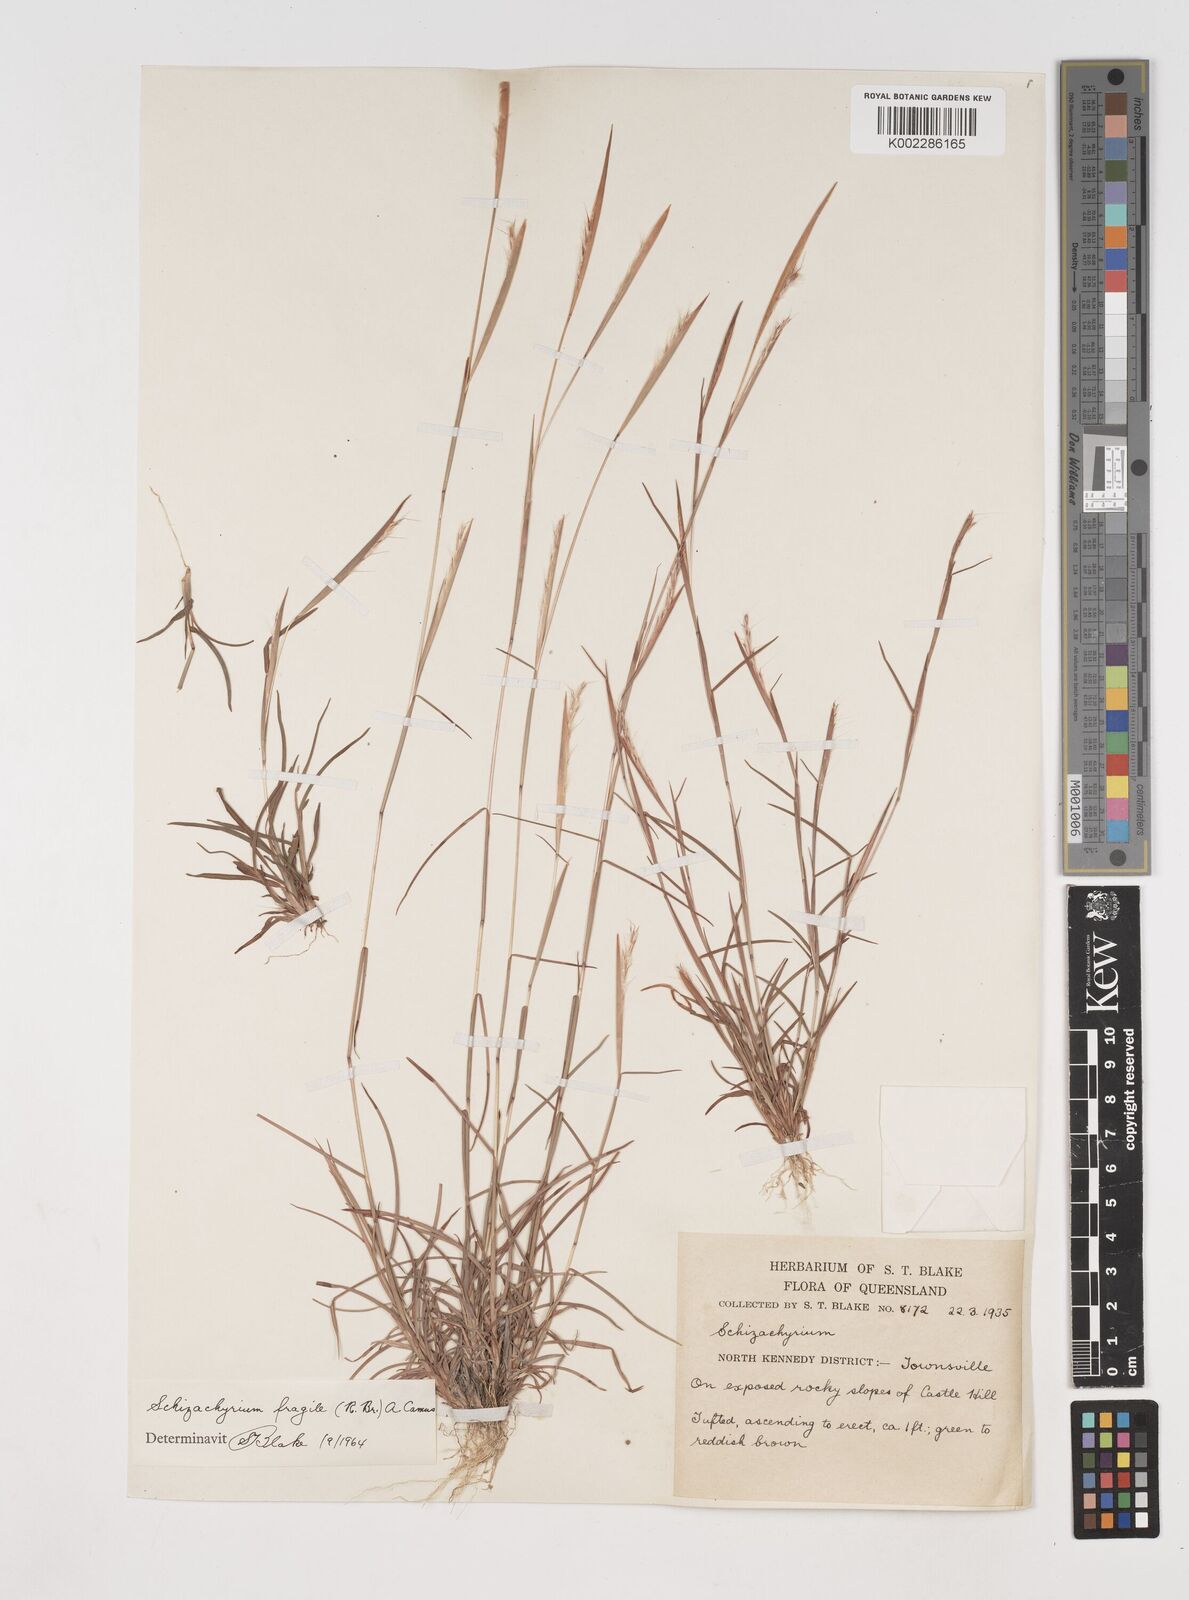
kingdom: Plantae
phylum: Tracheophyta
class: Liliopsida
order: Poales
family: Poaceae
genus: Schizachyrium
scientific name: Schizachyrium fragile
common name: Red spathe grass
